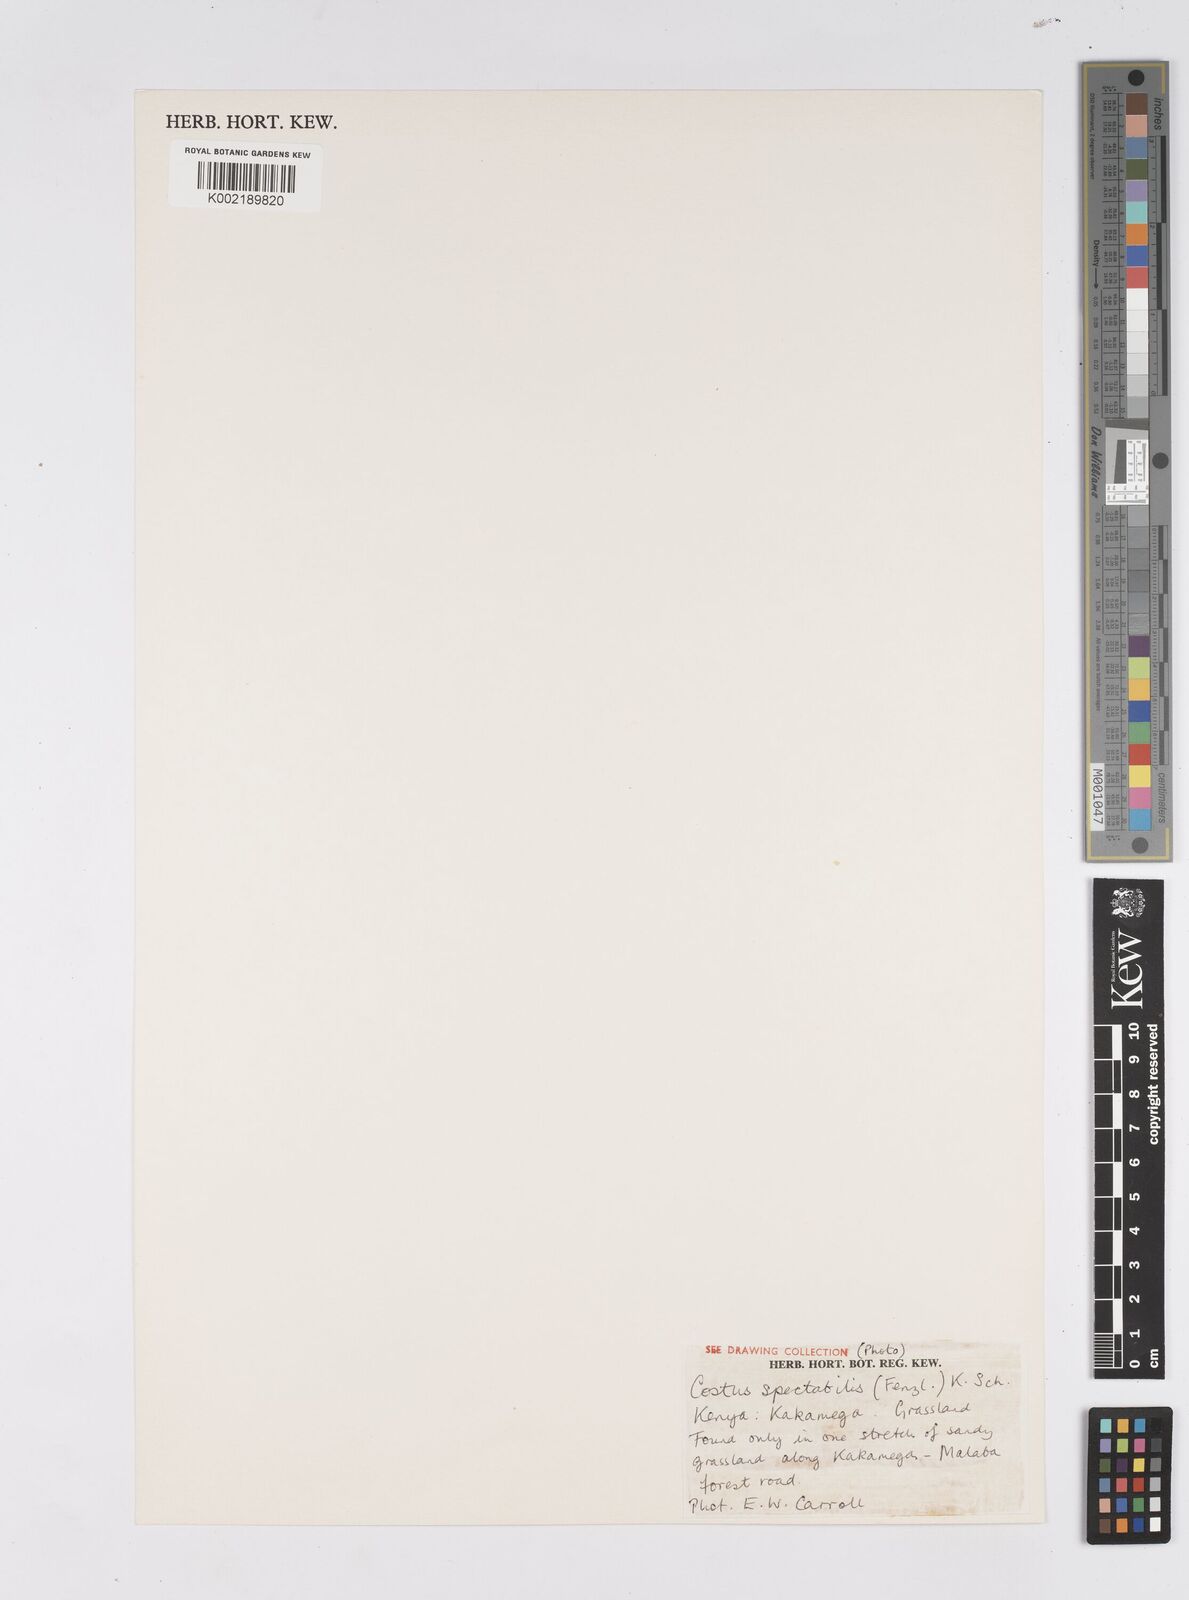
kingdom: Plantae
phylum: Tracheophyta
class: Liliopsida
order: Zingiberales
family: Costaceae
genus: Costus
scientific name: Costus spectabilis
